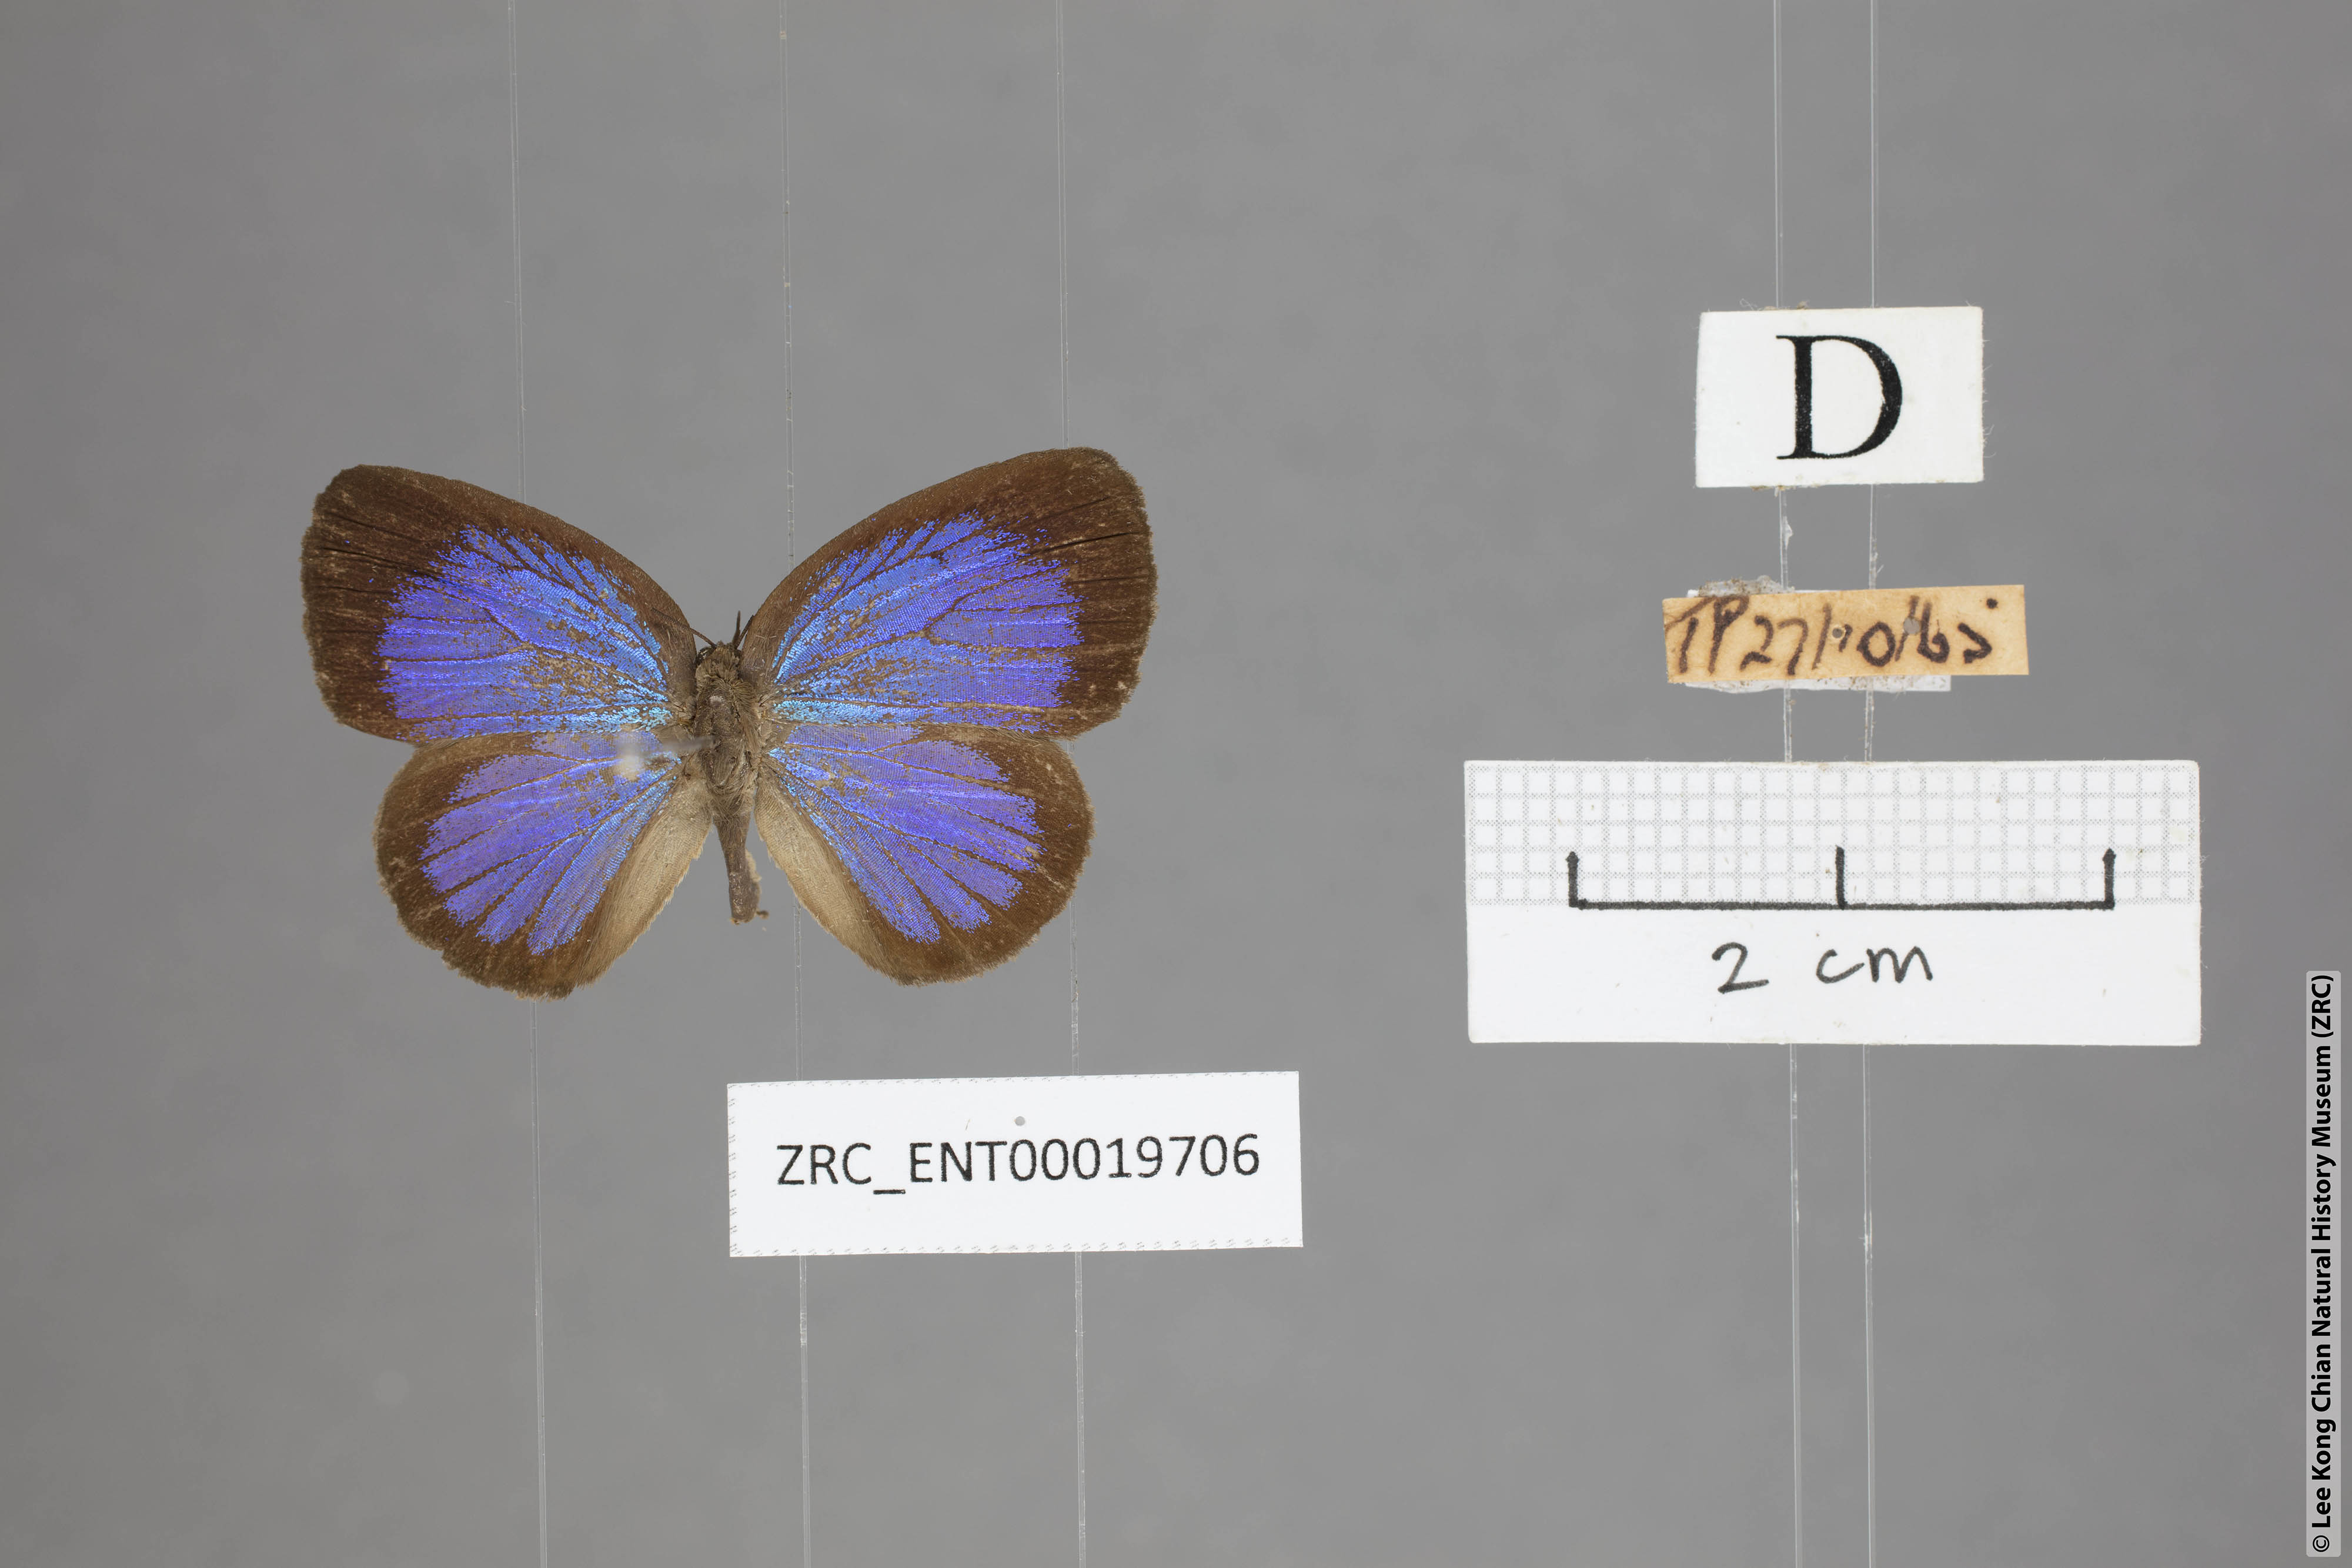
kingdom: Animalia
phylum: Arthropoda
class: Insecta
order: Lepidoptera
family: Lycaenidae
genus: Arhopala
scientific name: Arhopala muta
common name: Mutal oakblue
